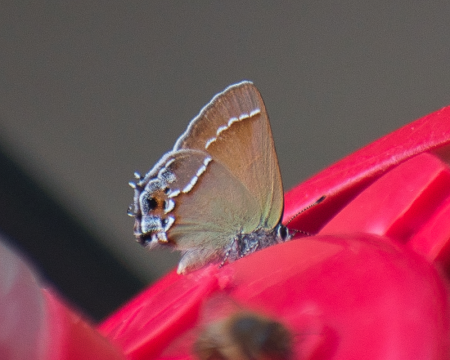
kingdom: Animalia
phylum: Arthropoda
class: Insecta
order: Lepidoptera
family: Lycaenidae
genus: Mitoura
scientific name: Mitoura gryneus
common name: Juniper Hairstreak
